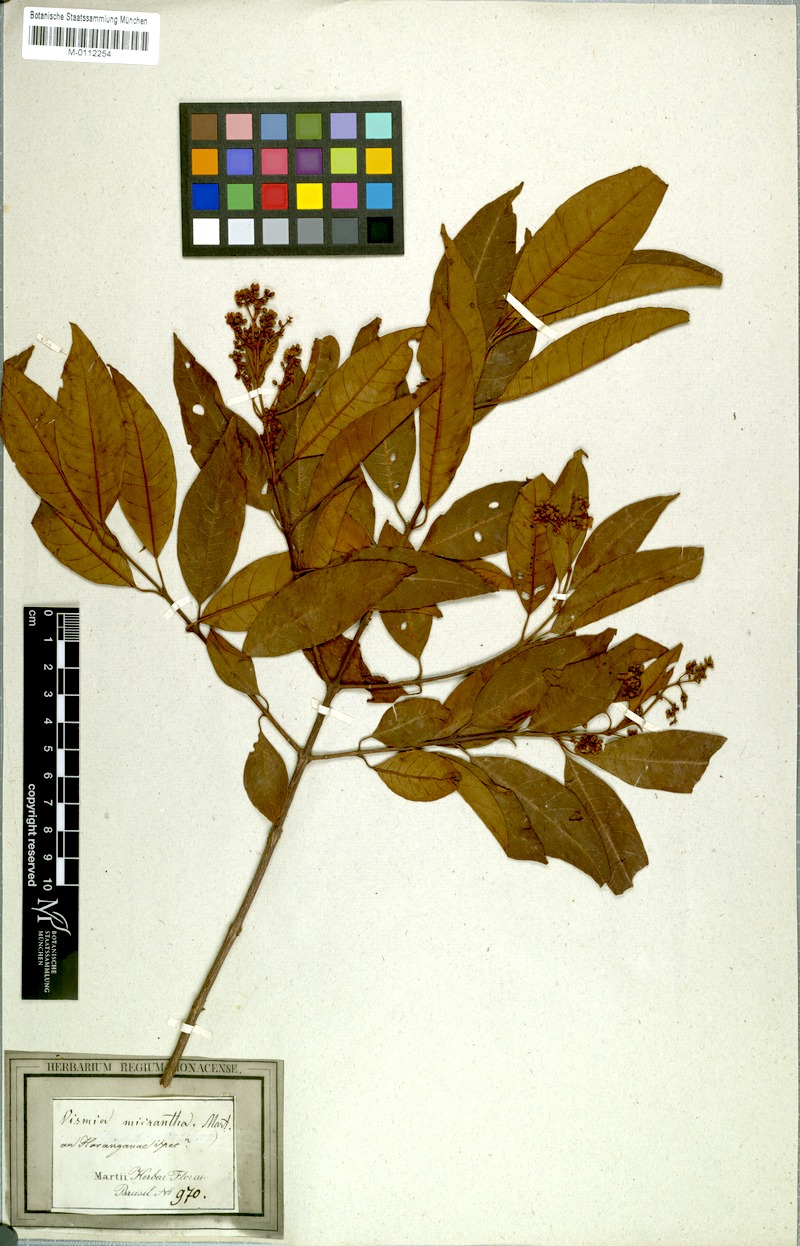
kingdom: Plantae
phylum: Tracheophyta
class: Magnoliopsida
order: Malpighiales
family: Hypericaceae
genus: Vismia
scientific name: Vismia micrantha
